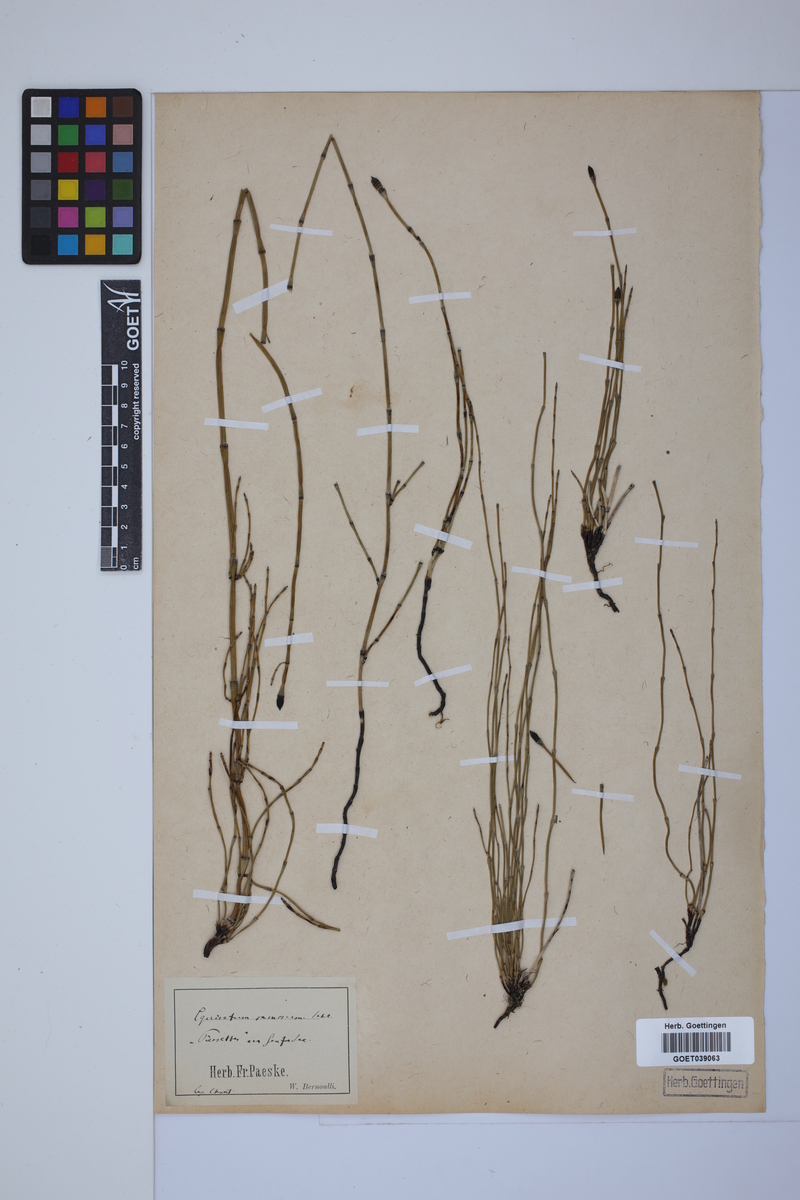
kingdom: Plantae
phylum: Tracheophyta
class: Polypodiopsida
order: Equisetales
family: Equisetaceae
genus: Equisetum
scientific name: Equisetum giganteum
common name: Giant horsetail
